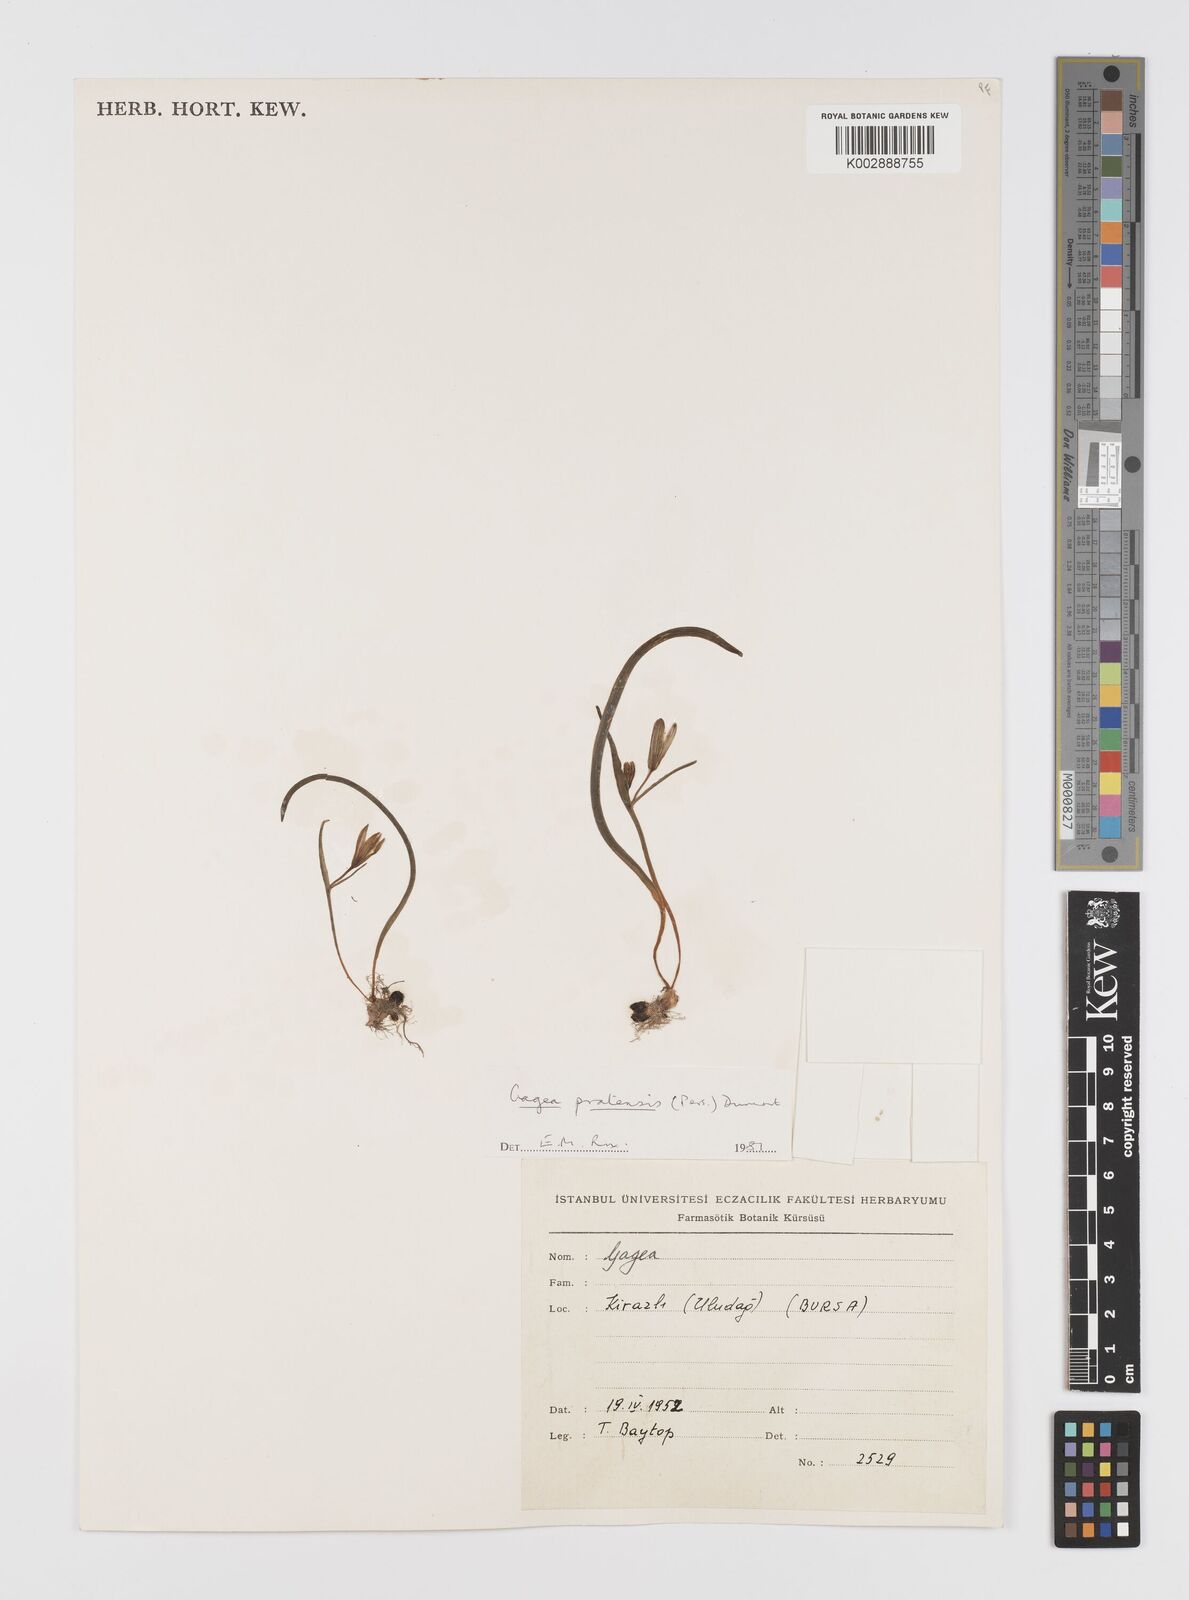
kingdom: Plantae
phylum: Tracheophyta
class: Liliopsida
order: Liliales
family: Liliaceae
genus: Gagea
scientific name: Gagea pratensis
